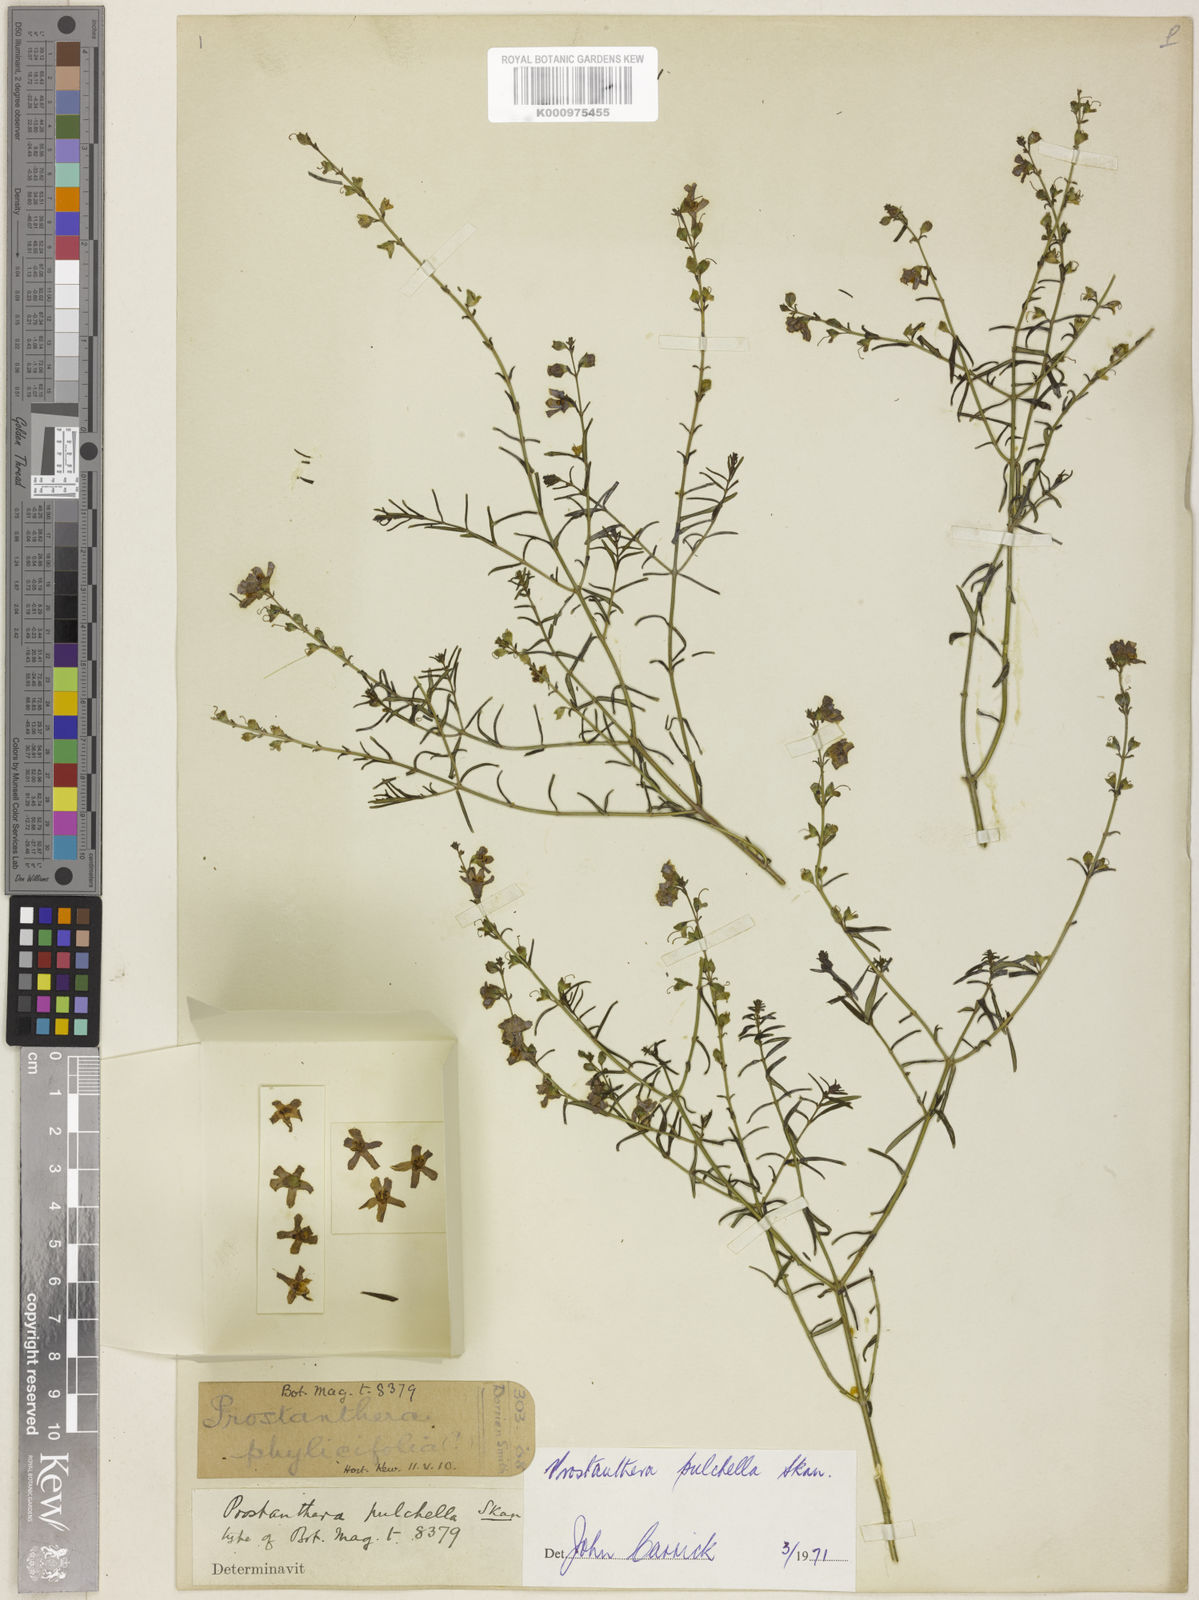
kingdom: Plantae
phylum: Tracheophyta
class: Magnoliopsida
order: Lamiales
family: Lamiaceae
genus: Prostanthera
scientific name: Prostanthera phylicifolia
